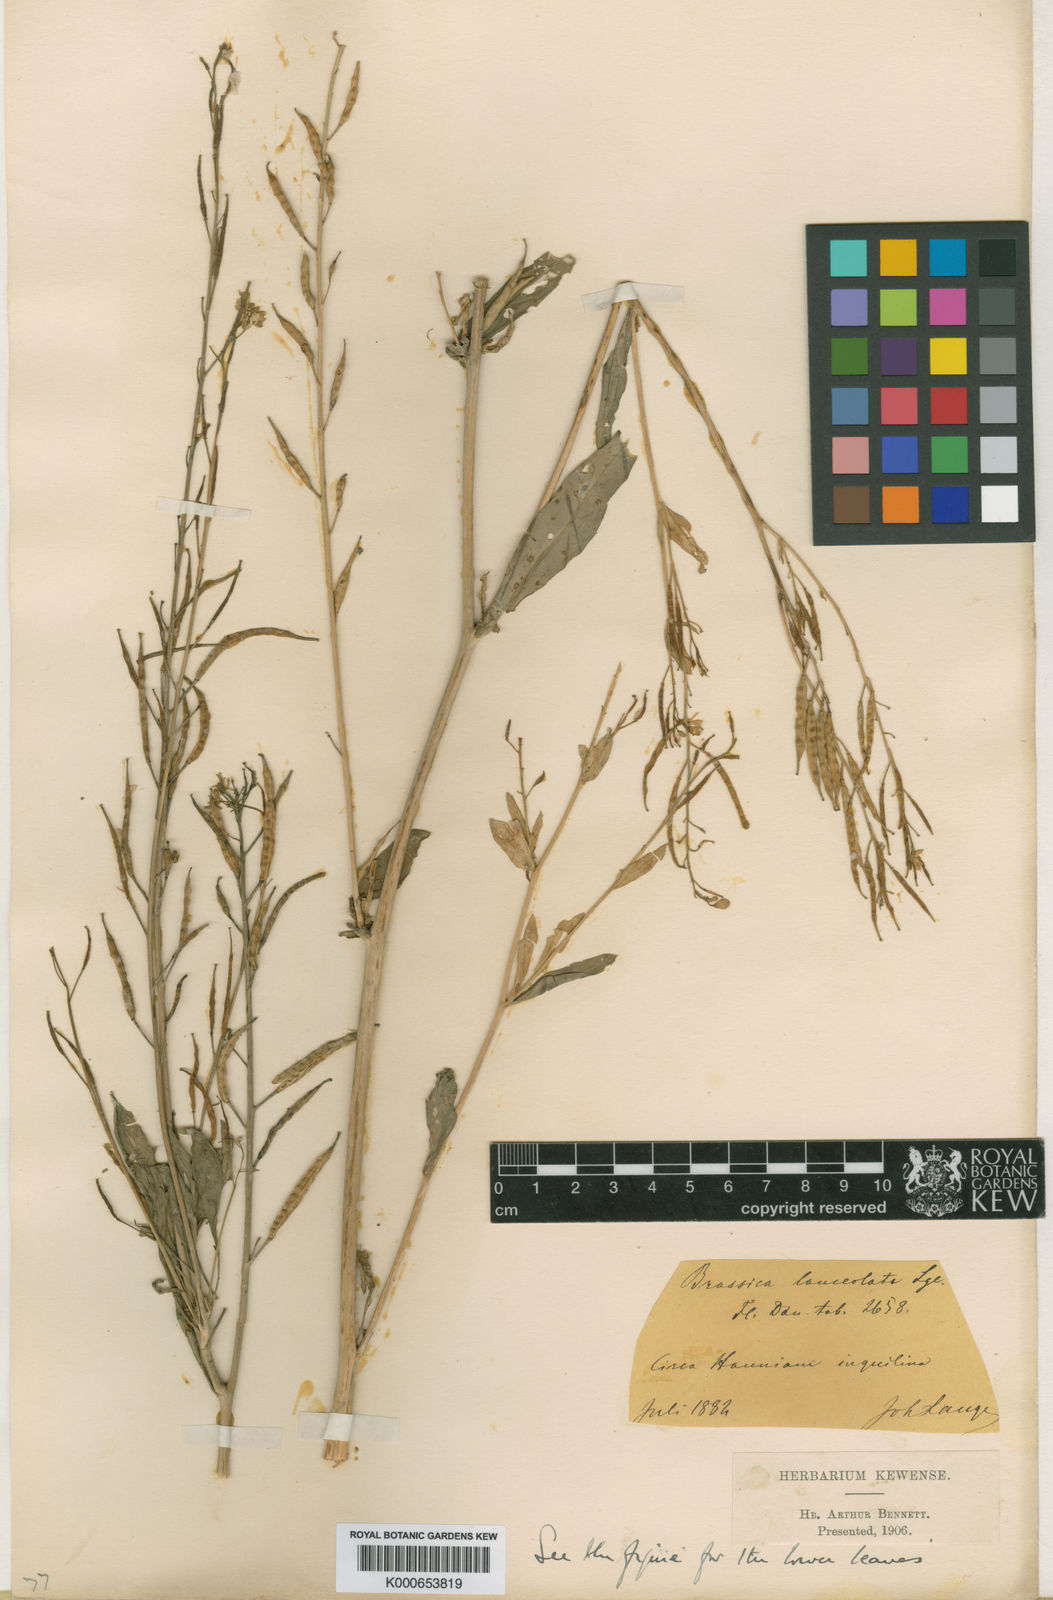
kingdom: Plantae
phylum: Tracheophyta
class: Magnoliopsida
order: Brassicales
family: Brassicaceae
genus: Brassica
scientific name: Brassica
